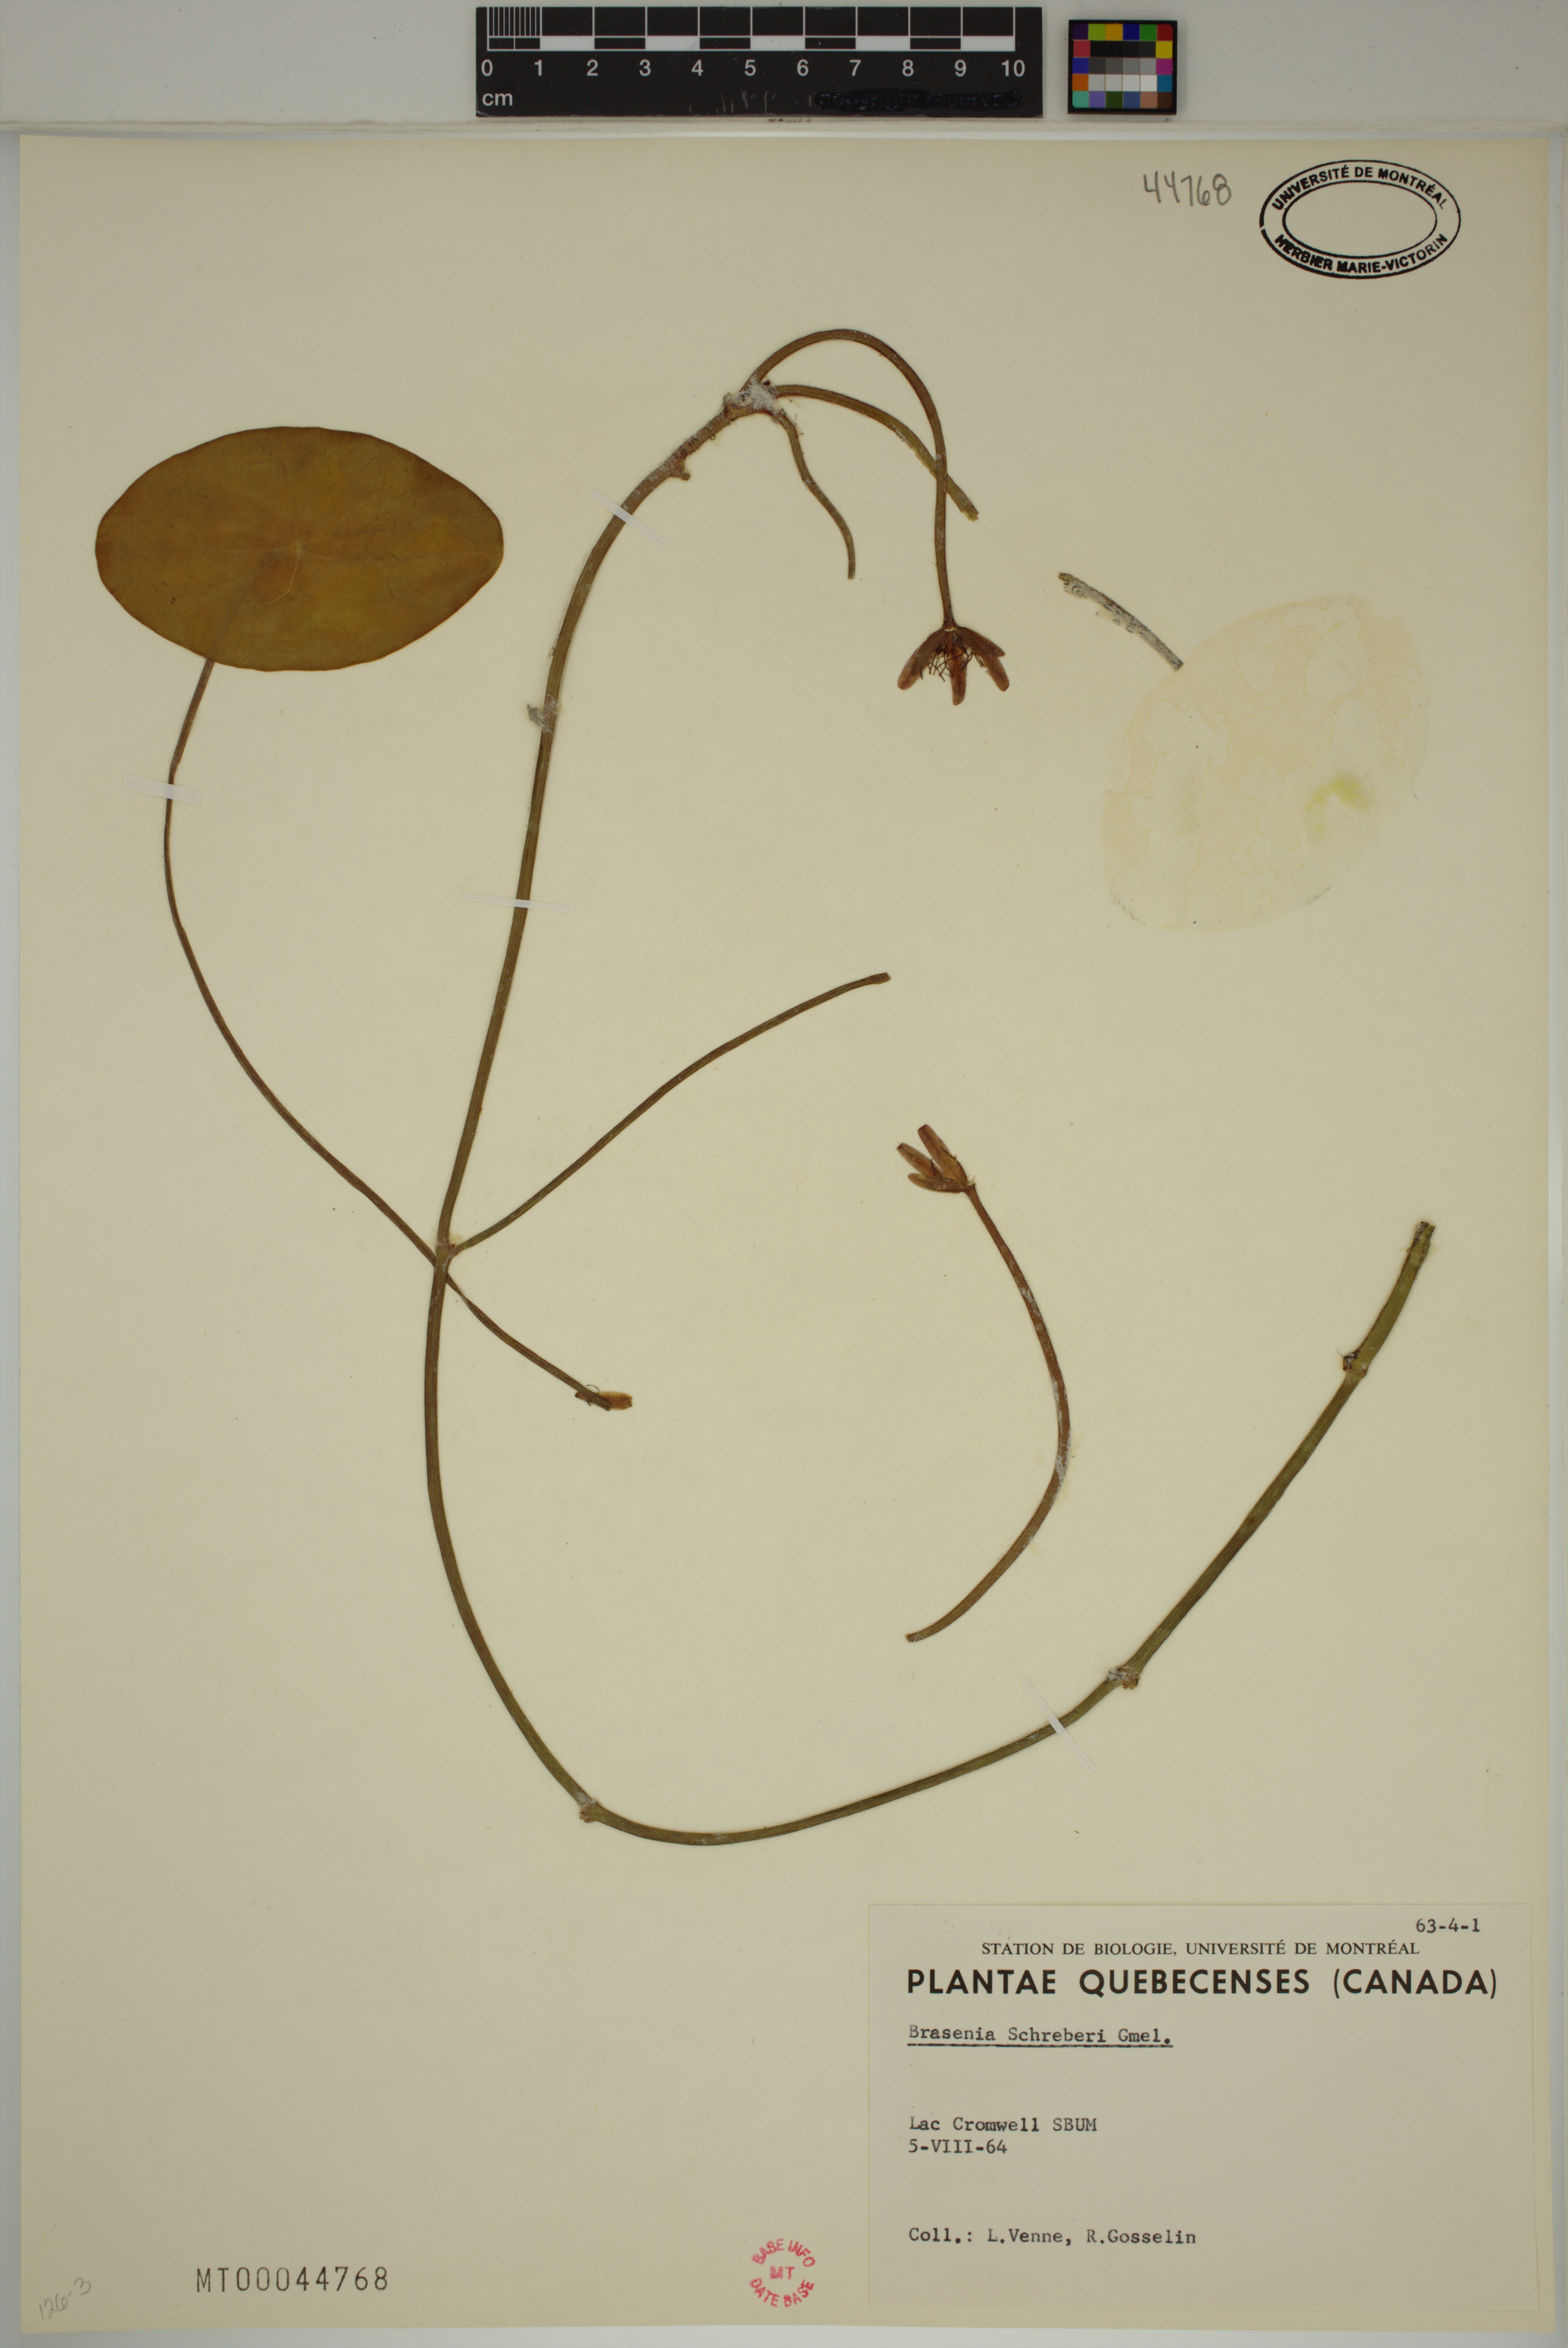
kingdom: Plantae
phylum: Tracheophyta
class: Magnoliopsida
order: Nymphaeales
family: Cabombaceae
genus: Brasenia
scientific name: Brasenia schreberi
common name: Water-shield
